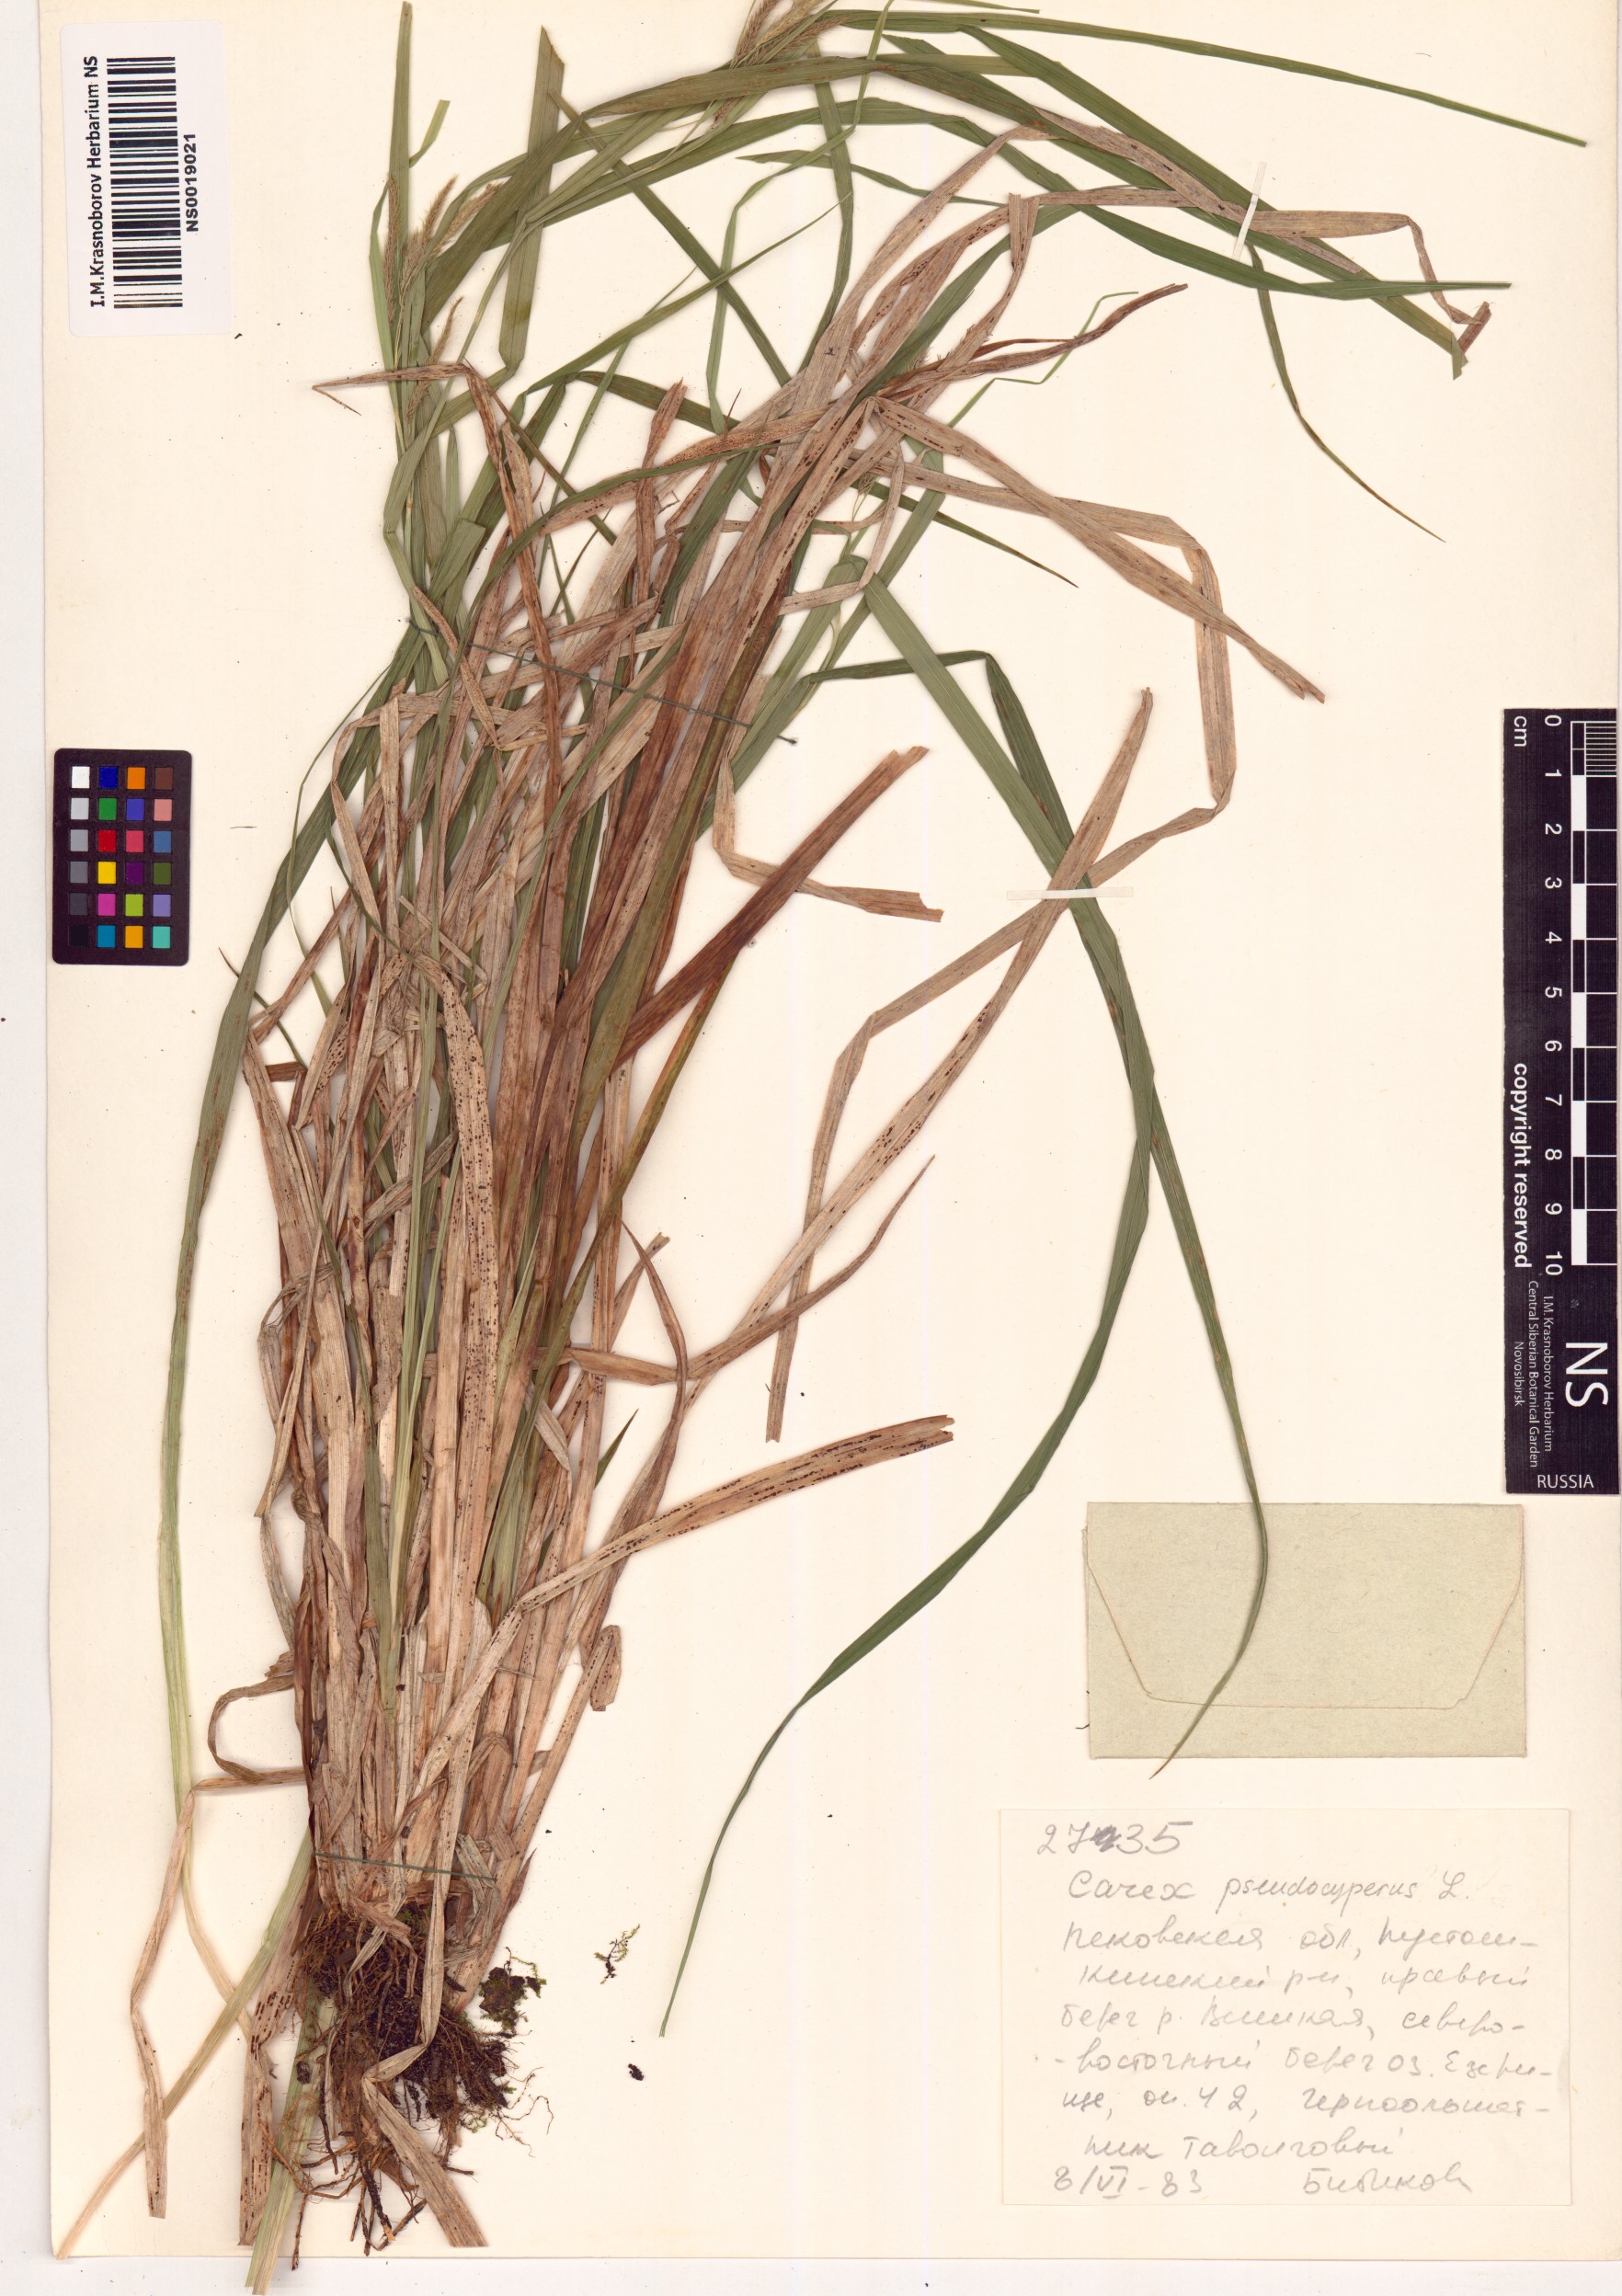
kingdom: Plantae
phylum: Tracheophyta
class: Liliopsida
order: Poales
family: Cyperaceae
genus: Carex
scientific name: Carex pseudocyperus
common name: Cyperus sedge
